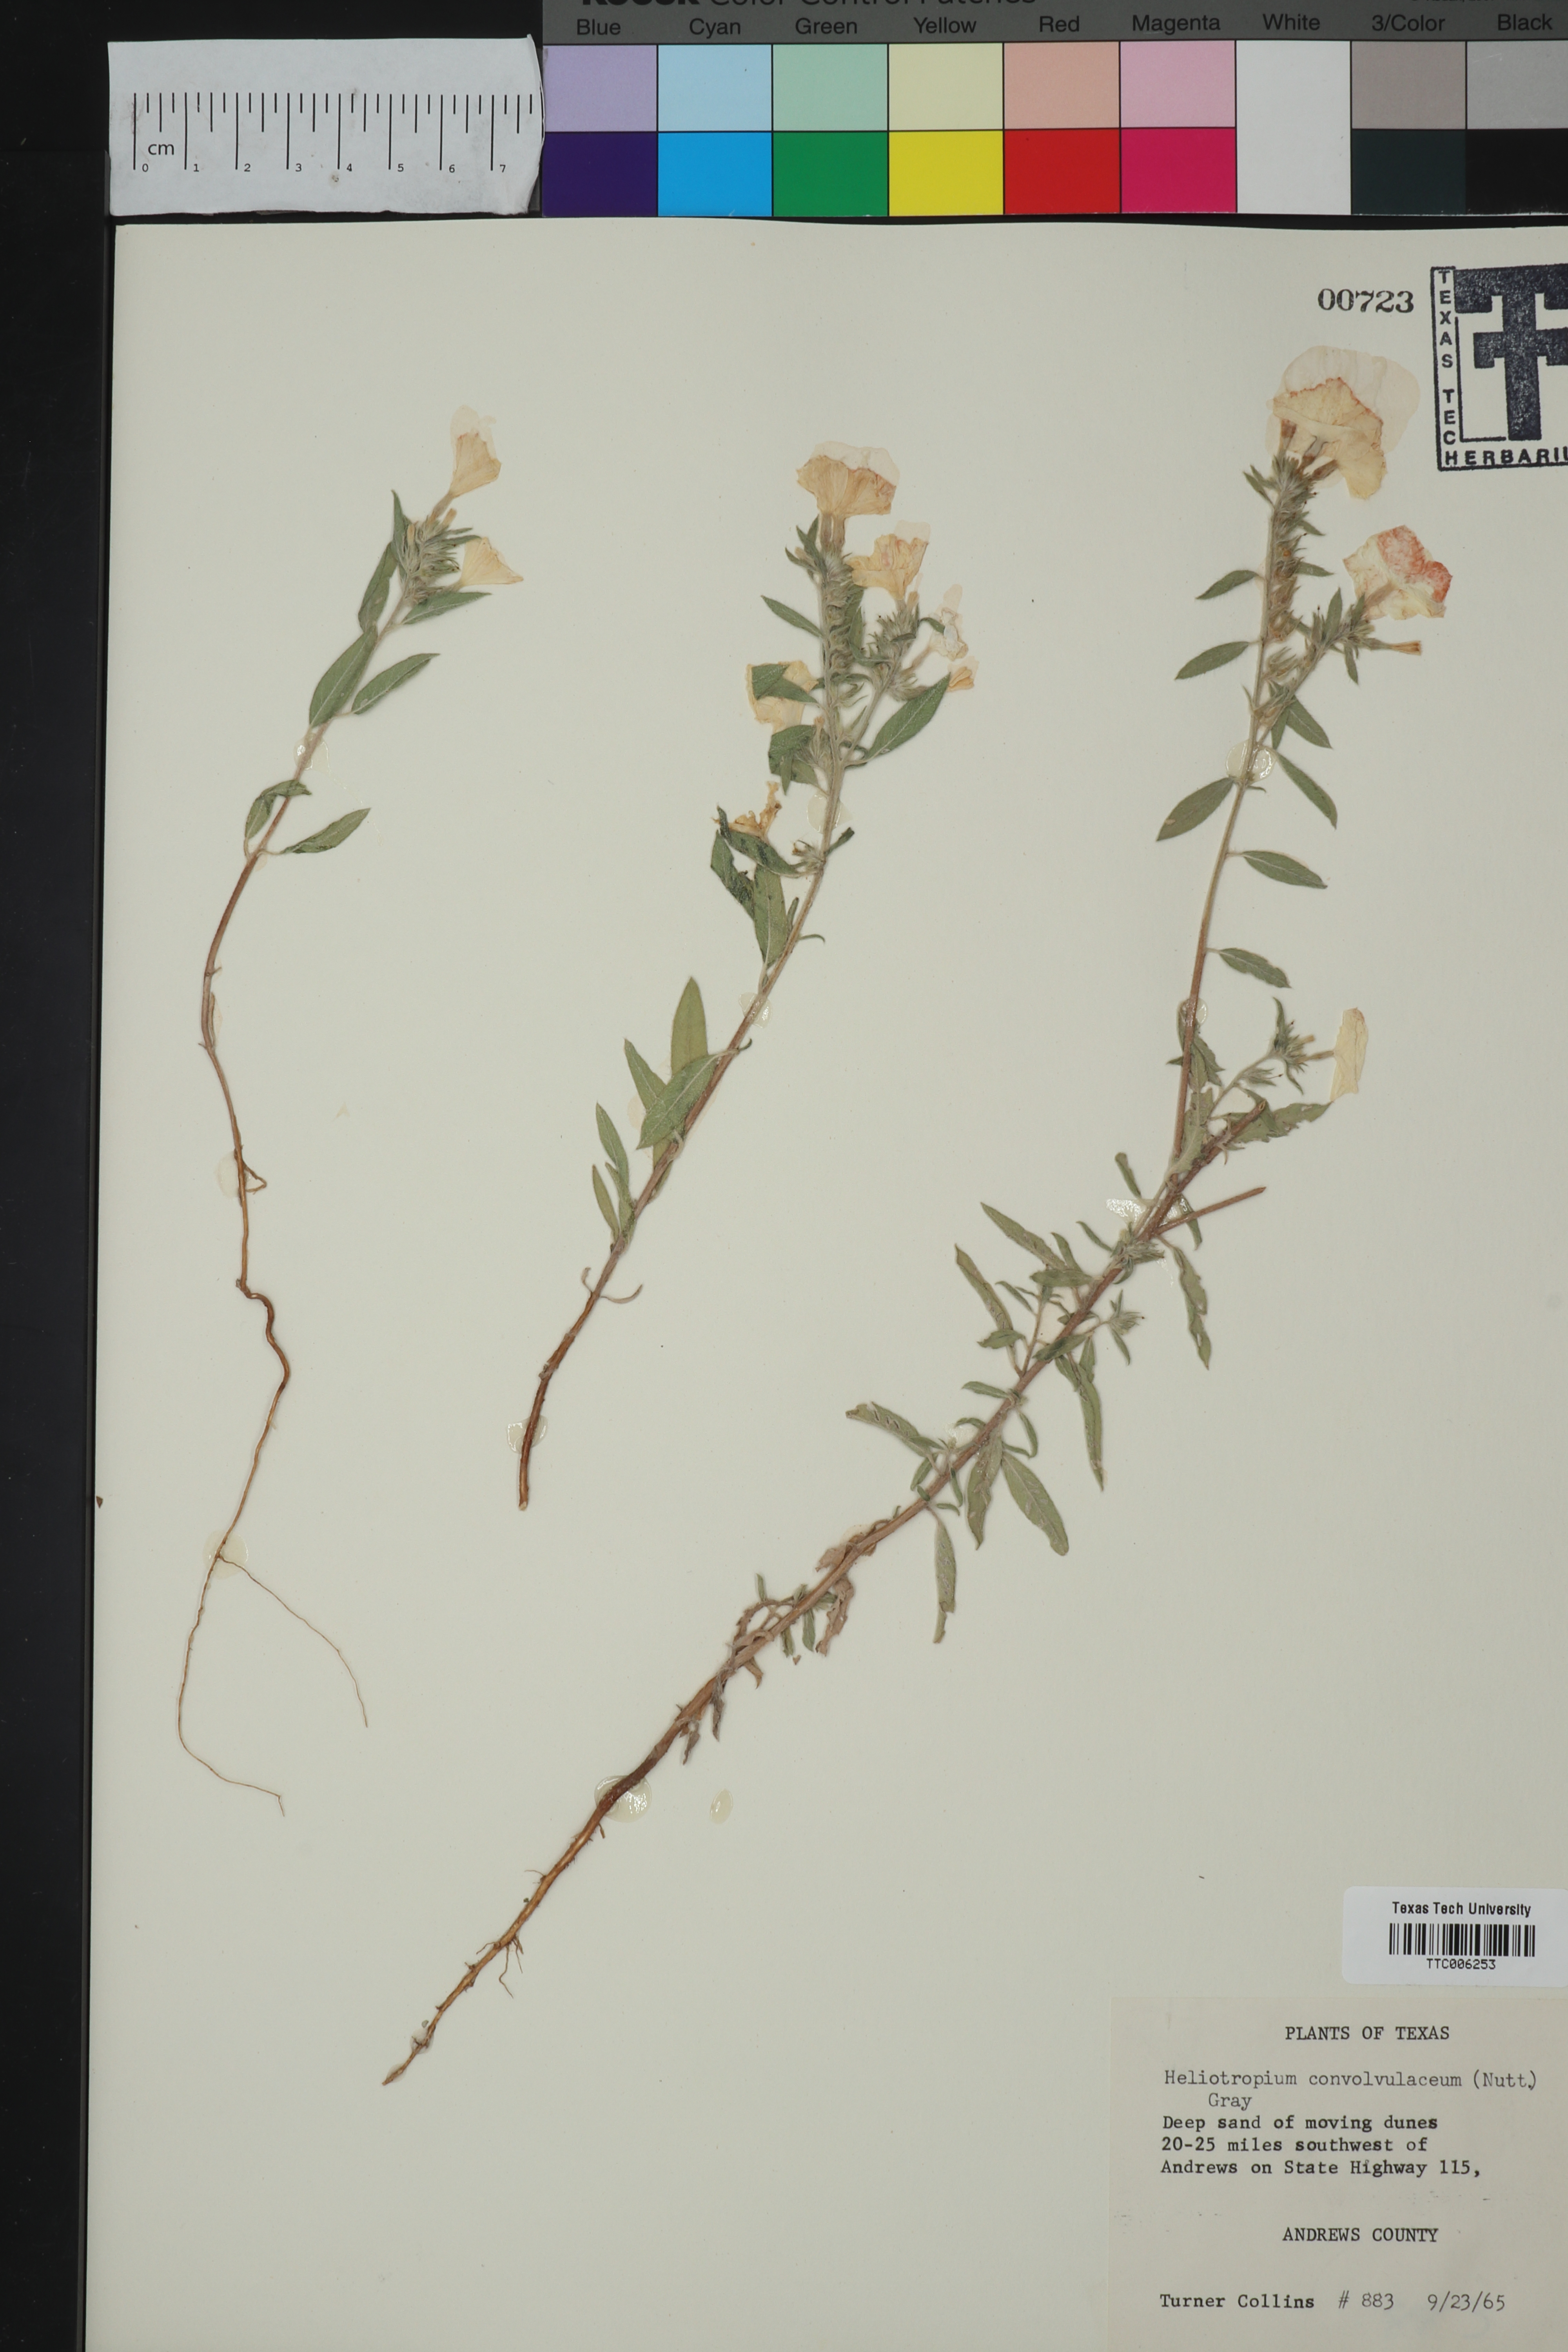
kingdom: Plantae
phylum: Tracheophyta
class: Magnoliopsida
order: Boraginales
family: Heliotropiaceae
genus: Euploca
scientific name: Euploca convolvulacea
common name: Bindweed heliotrope
